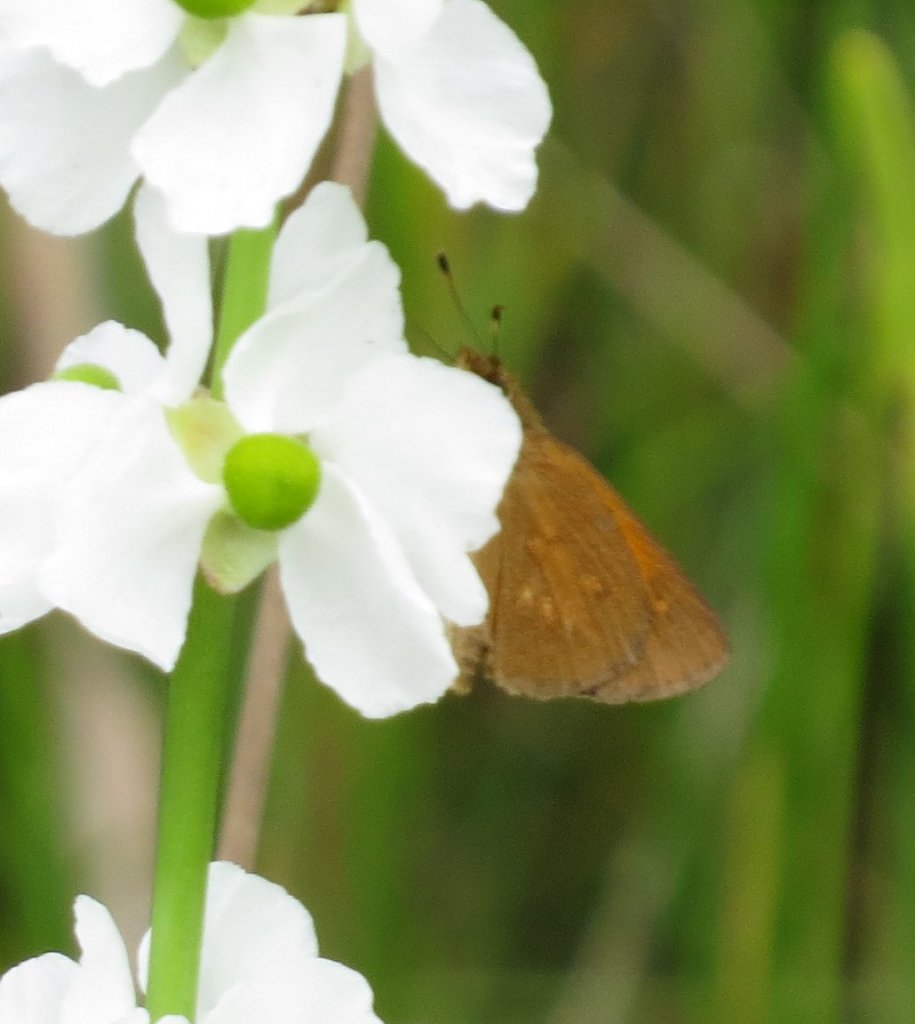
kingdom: Animalia
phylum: Arthropoda
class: Insecta
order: Lepidoptera
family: Hesperiidae
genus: Poanes
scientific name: Poanes viator
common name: Broad-winged Skipper
